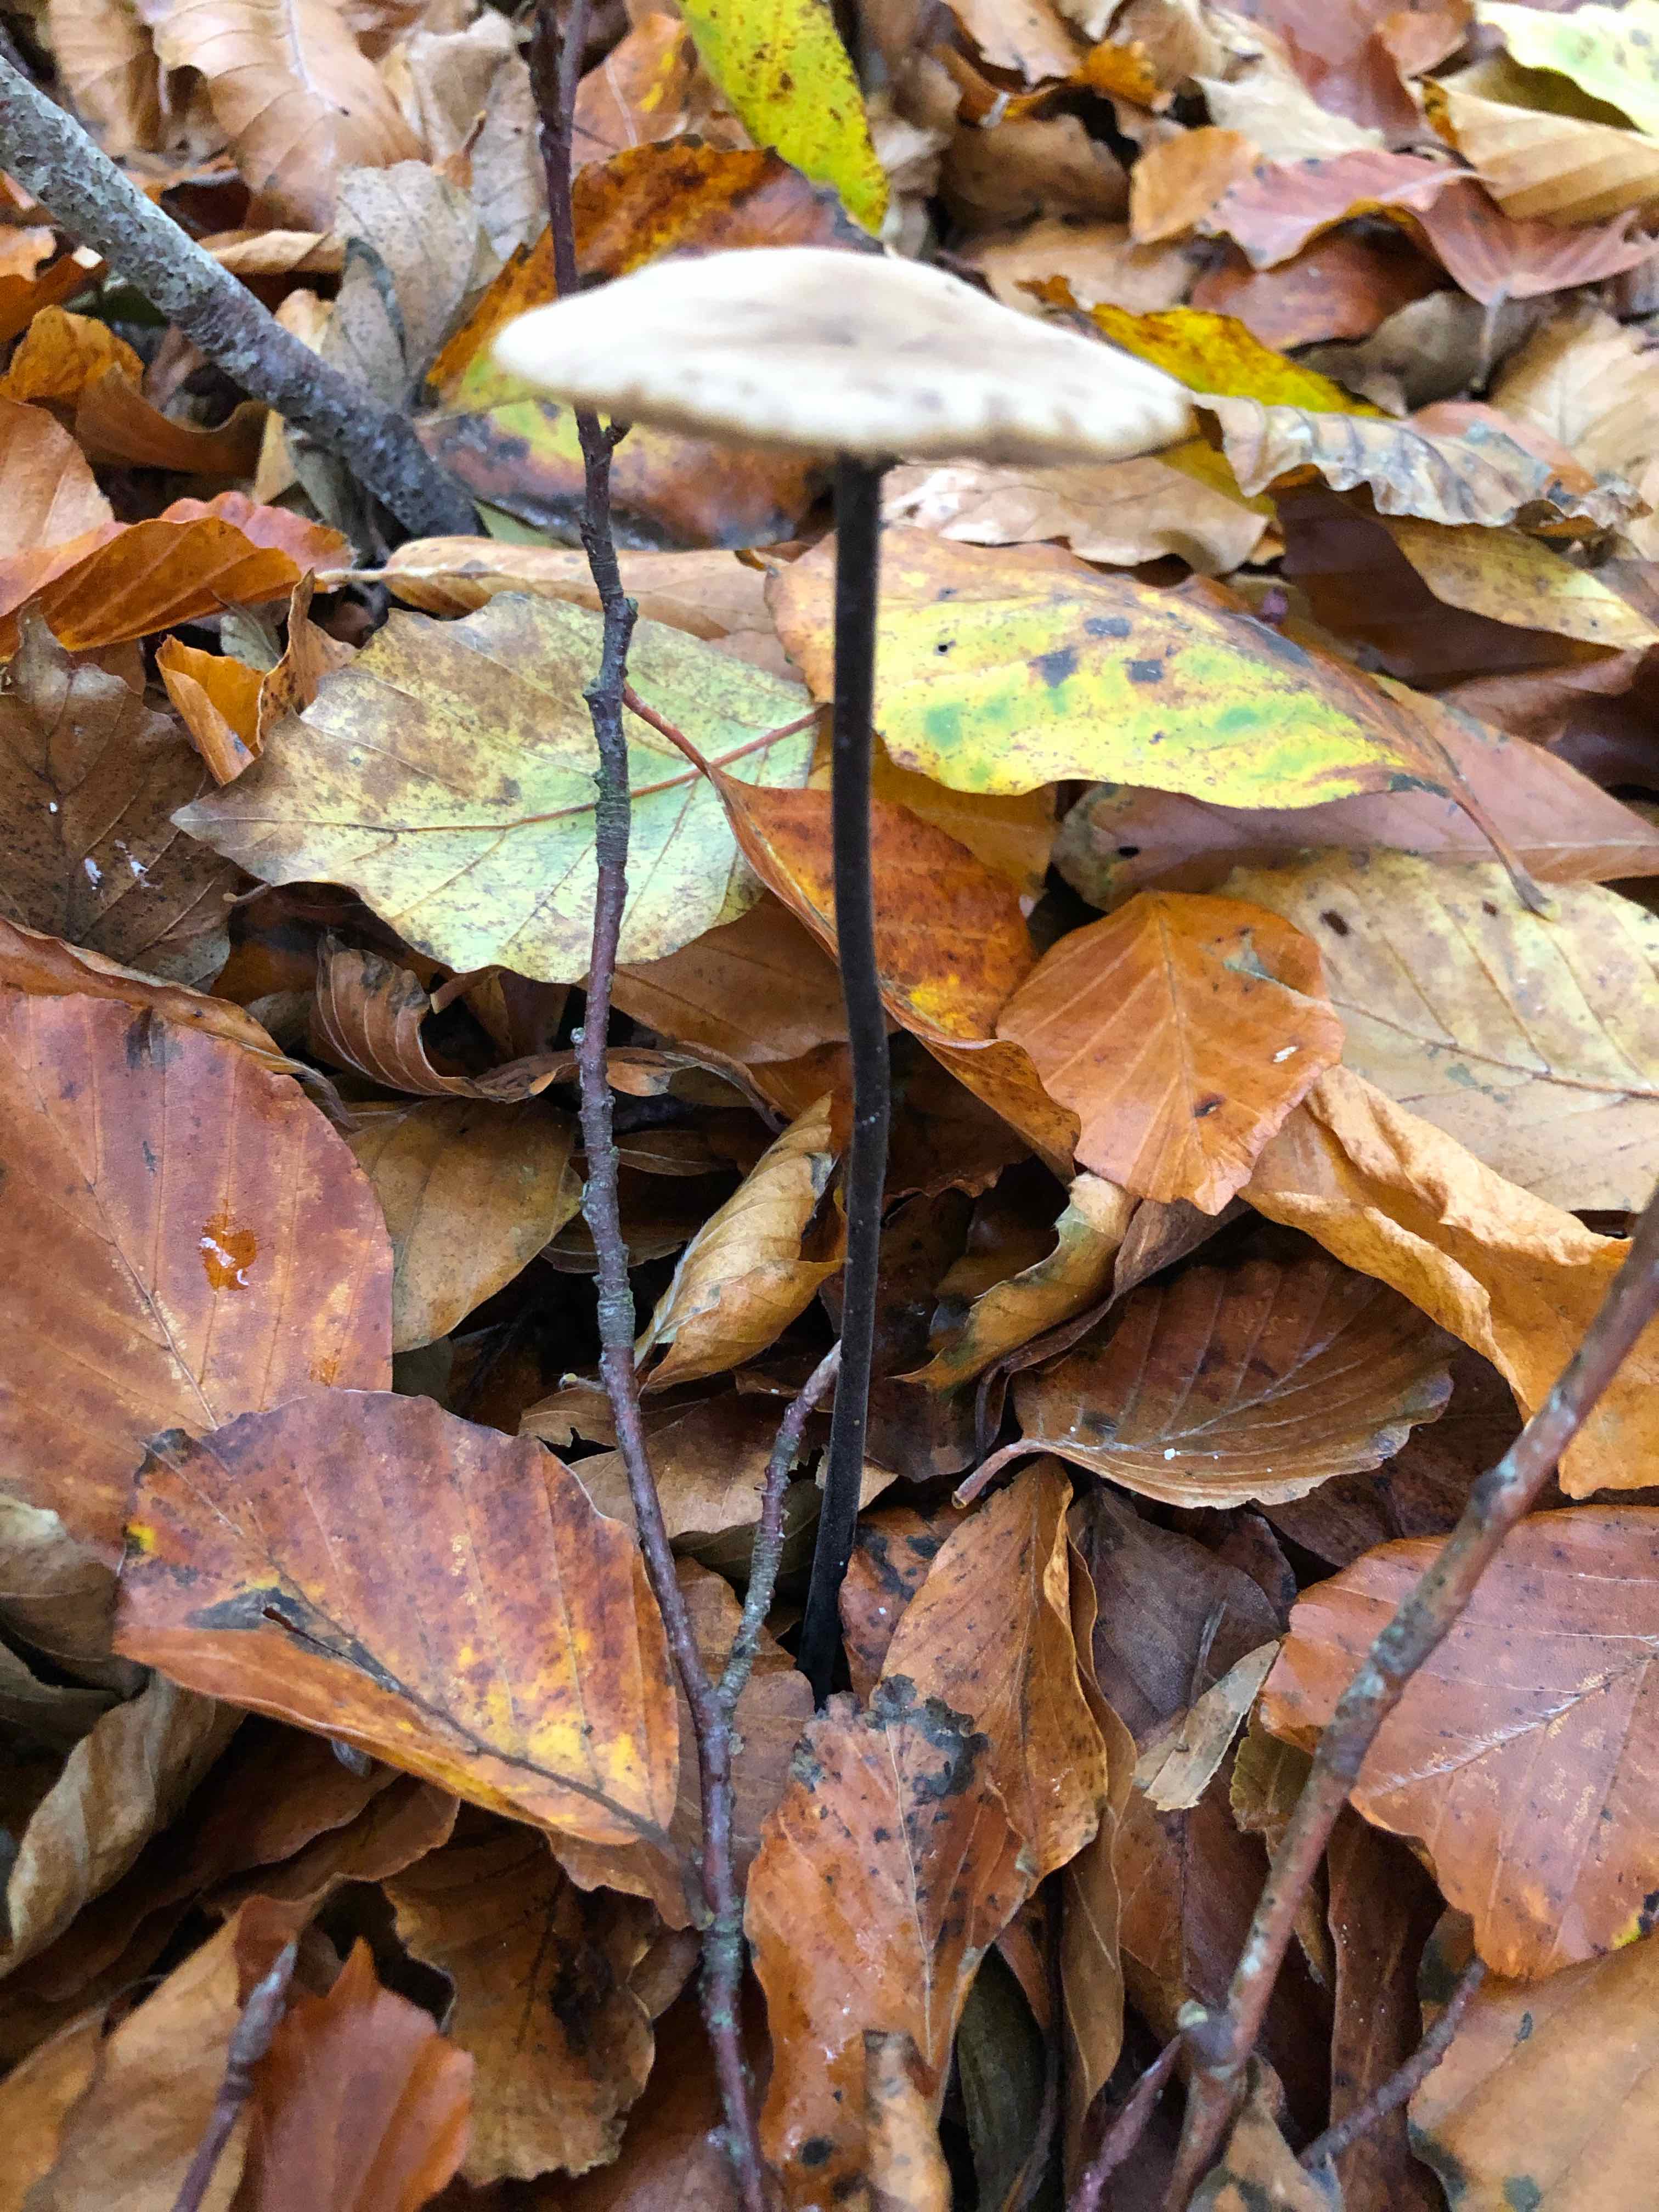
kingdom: Fungi
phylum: Basidiomycota
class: Agaricomycetes
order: Agaricales
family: Omphalotaceae
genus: Mycetinis
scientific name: Mycetinis alliaceus
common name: stor løghat
